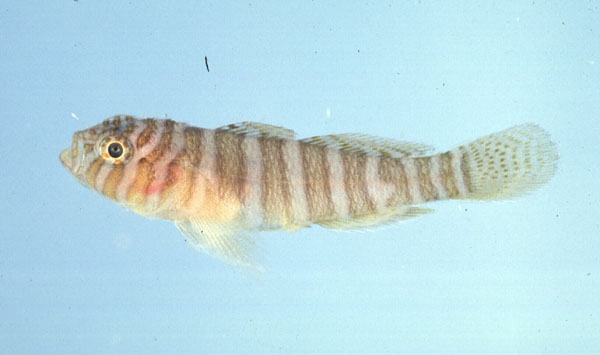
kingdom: Animalia
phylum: Chordata
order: Perciformes
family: Gobiidae
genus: Priolepis
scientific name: Priolepis cincta
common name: Banded reef-goby
